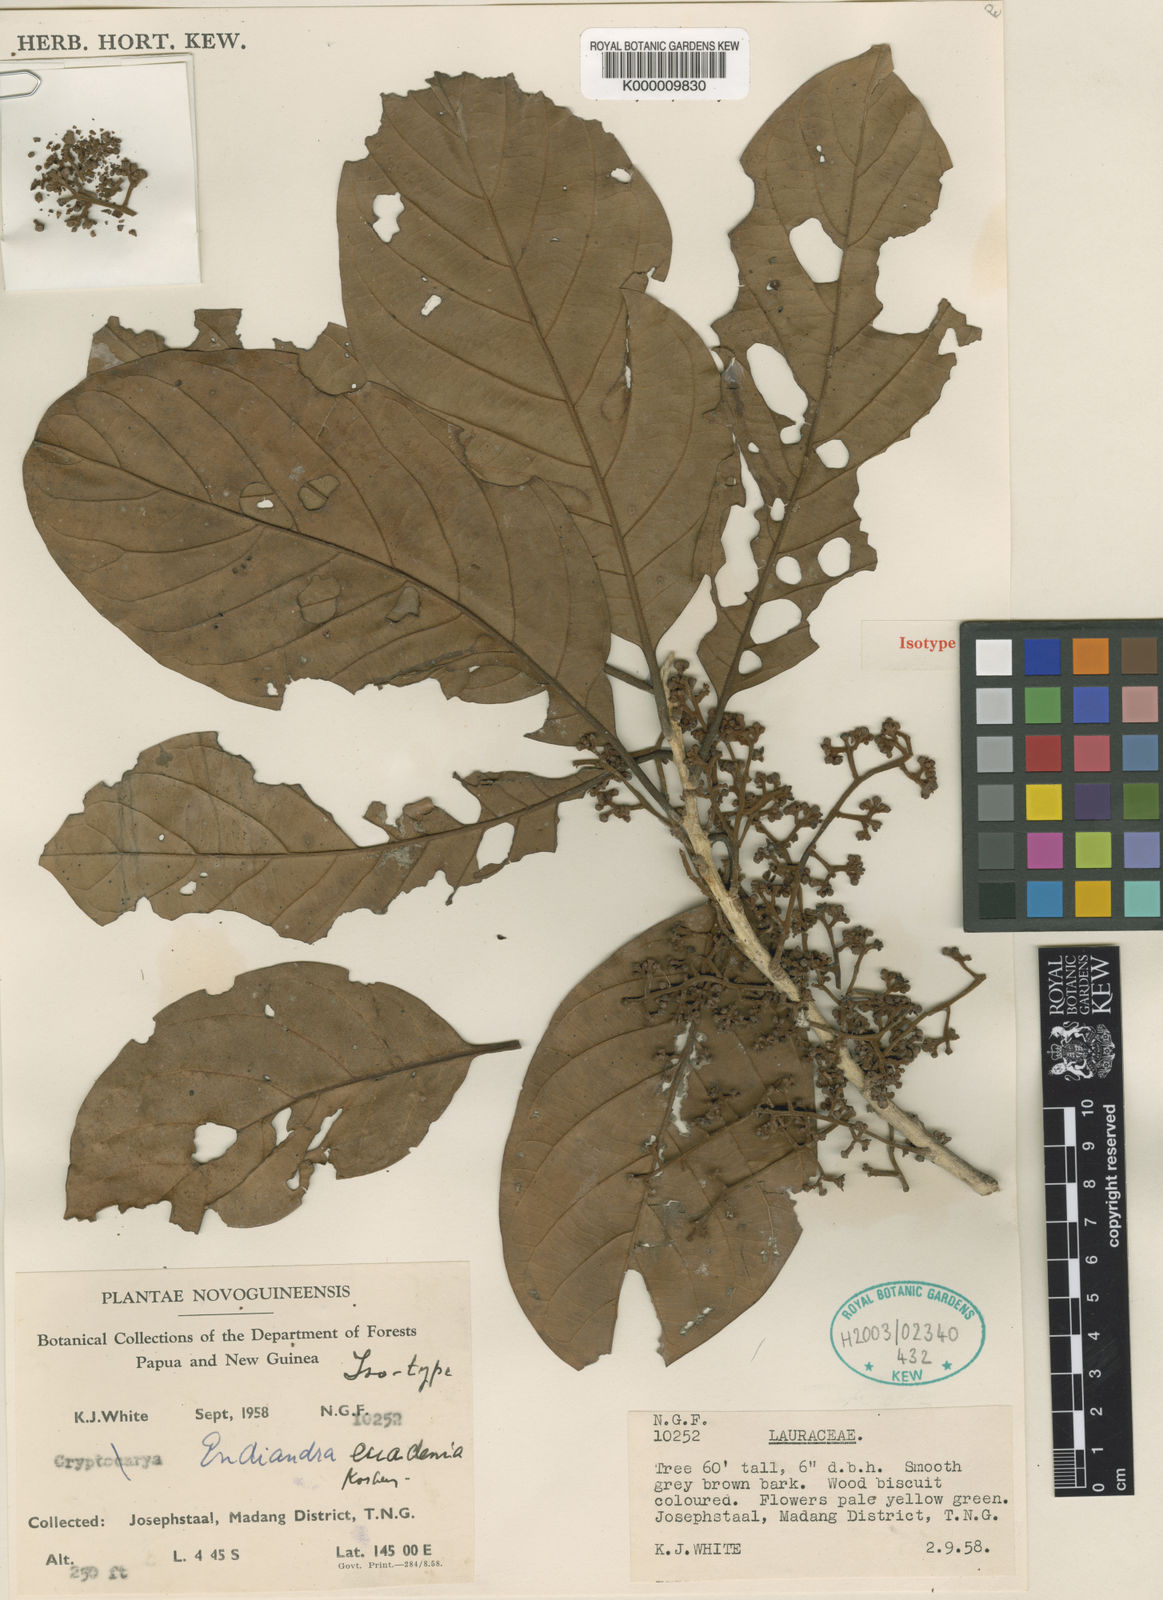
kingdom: Plantae
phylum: Tracheophyta
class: Magnoliopsida
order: Laurales
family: Lauraceae
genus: Endiandra
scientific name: Endiandra euadenia
